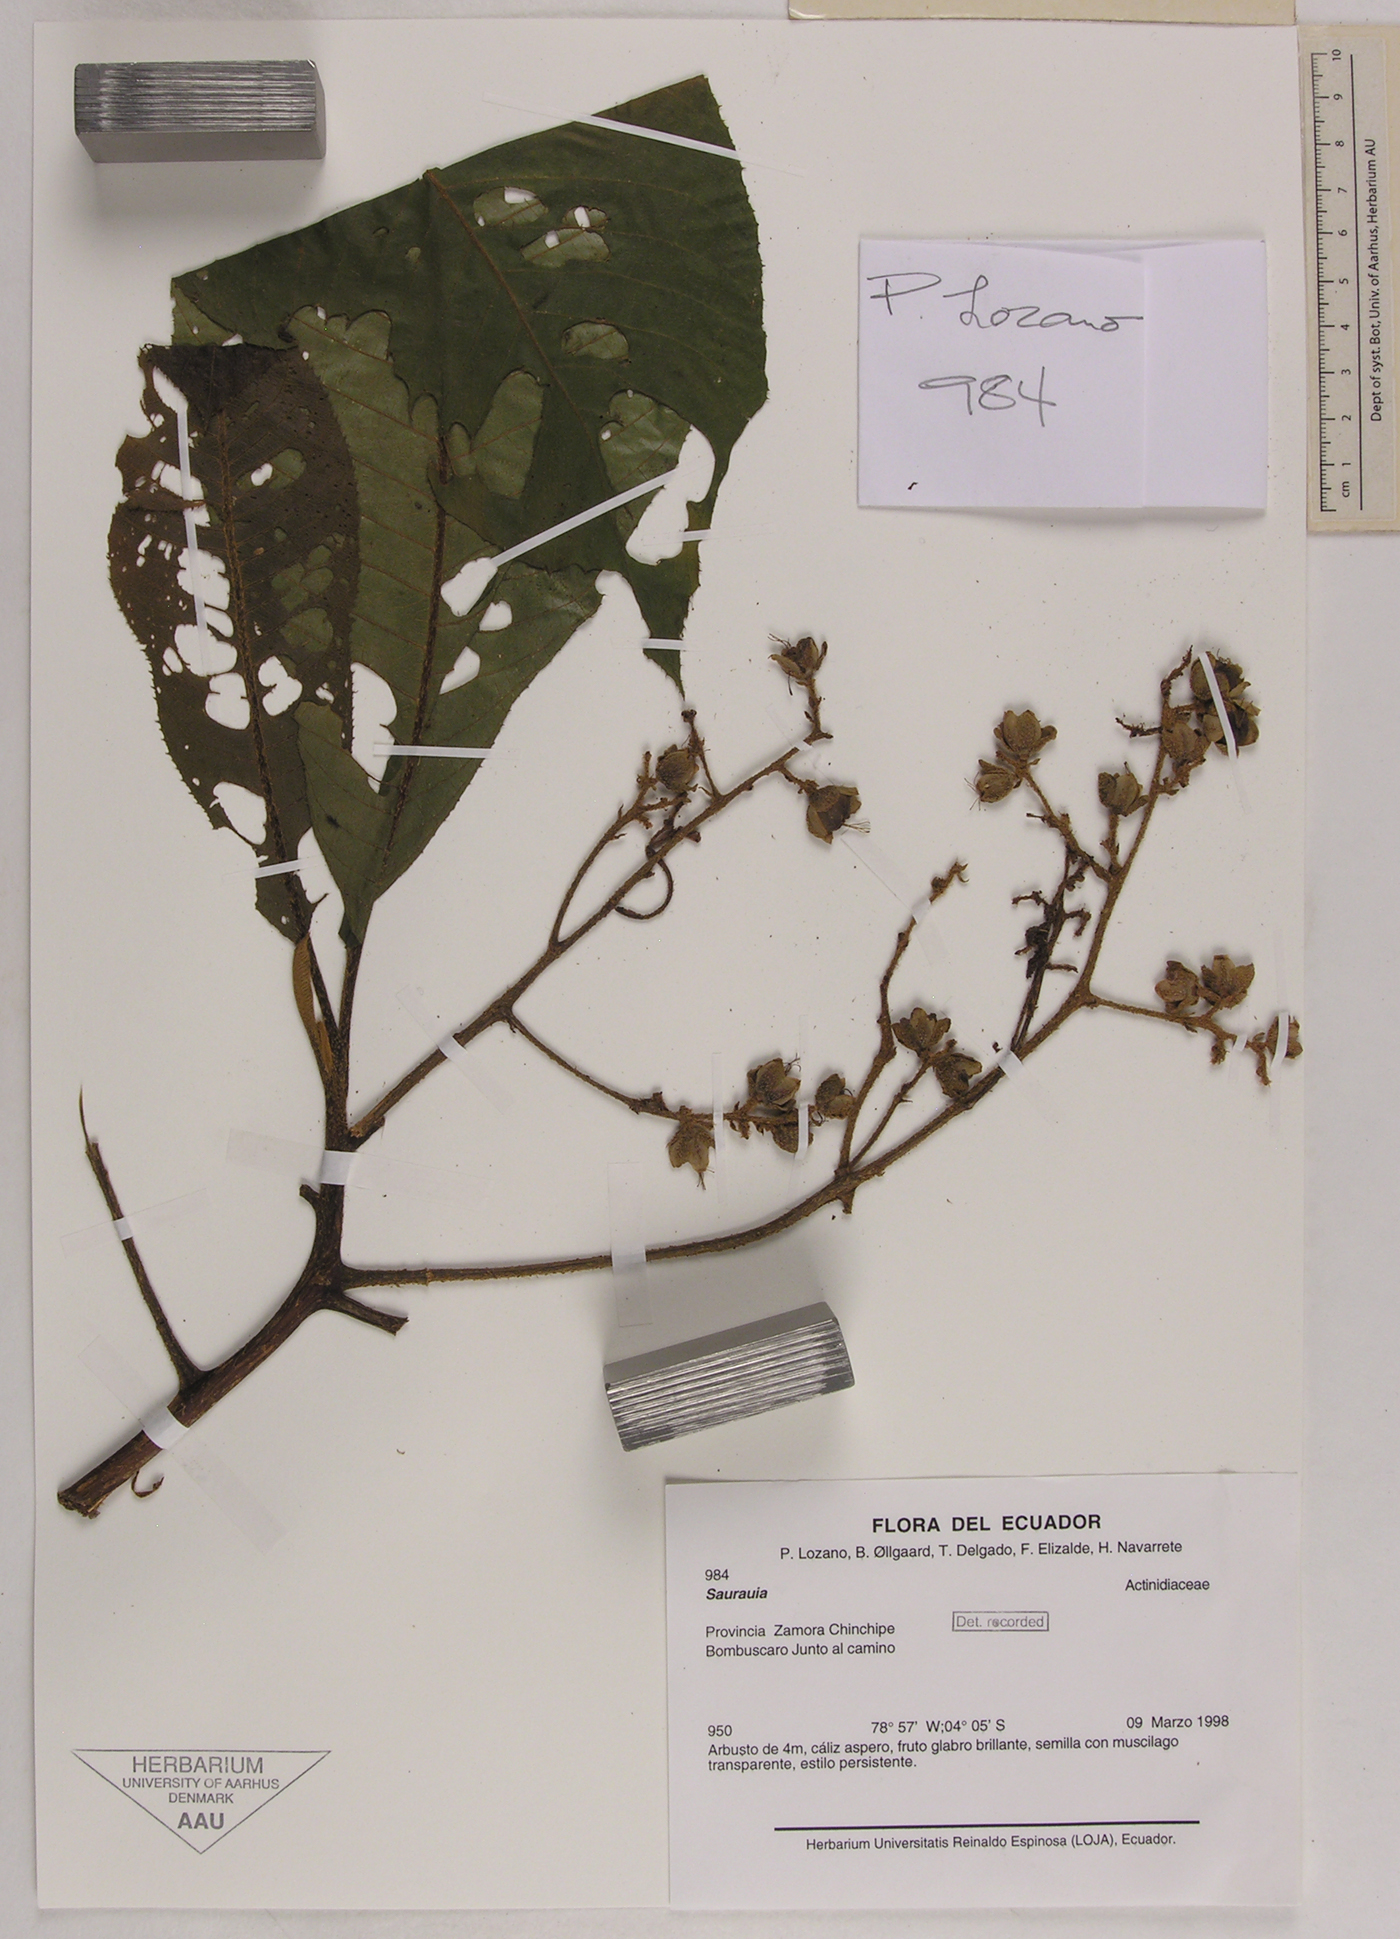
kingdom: Plantae
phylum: Tracheophyta
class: Magnoliopsida
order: Ericales
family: Actinidiaceae
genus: Saurauia
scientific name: Saurauia
